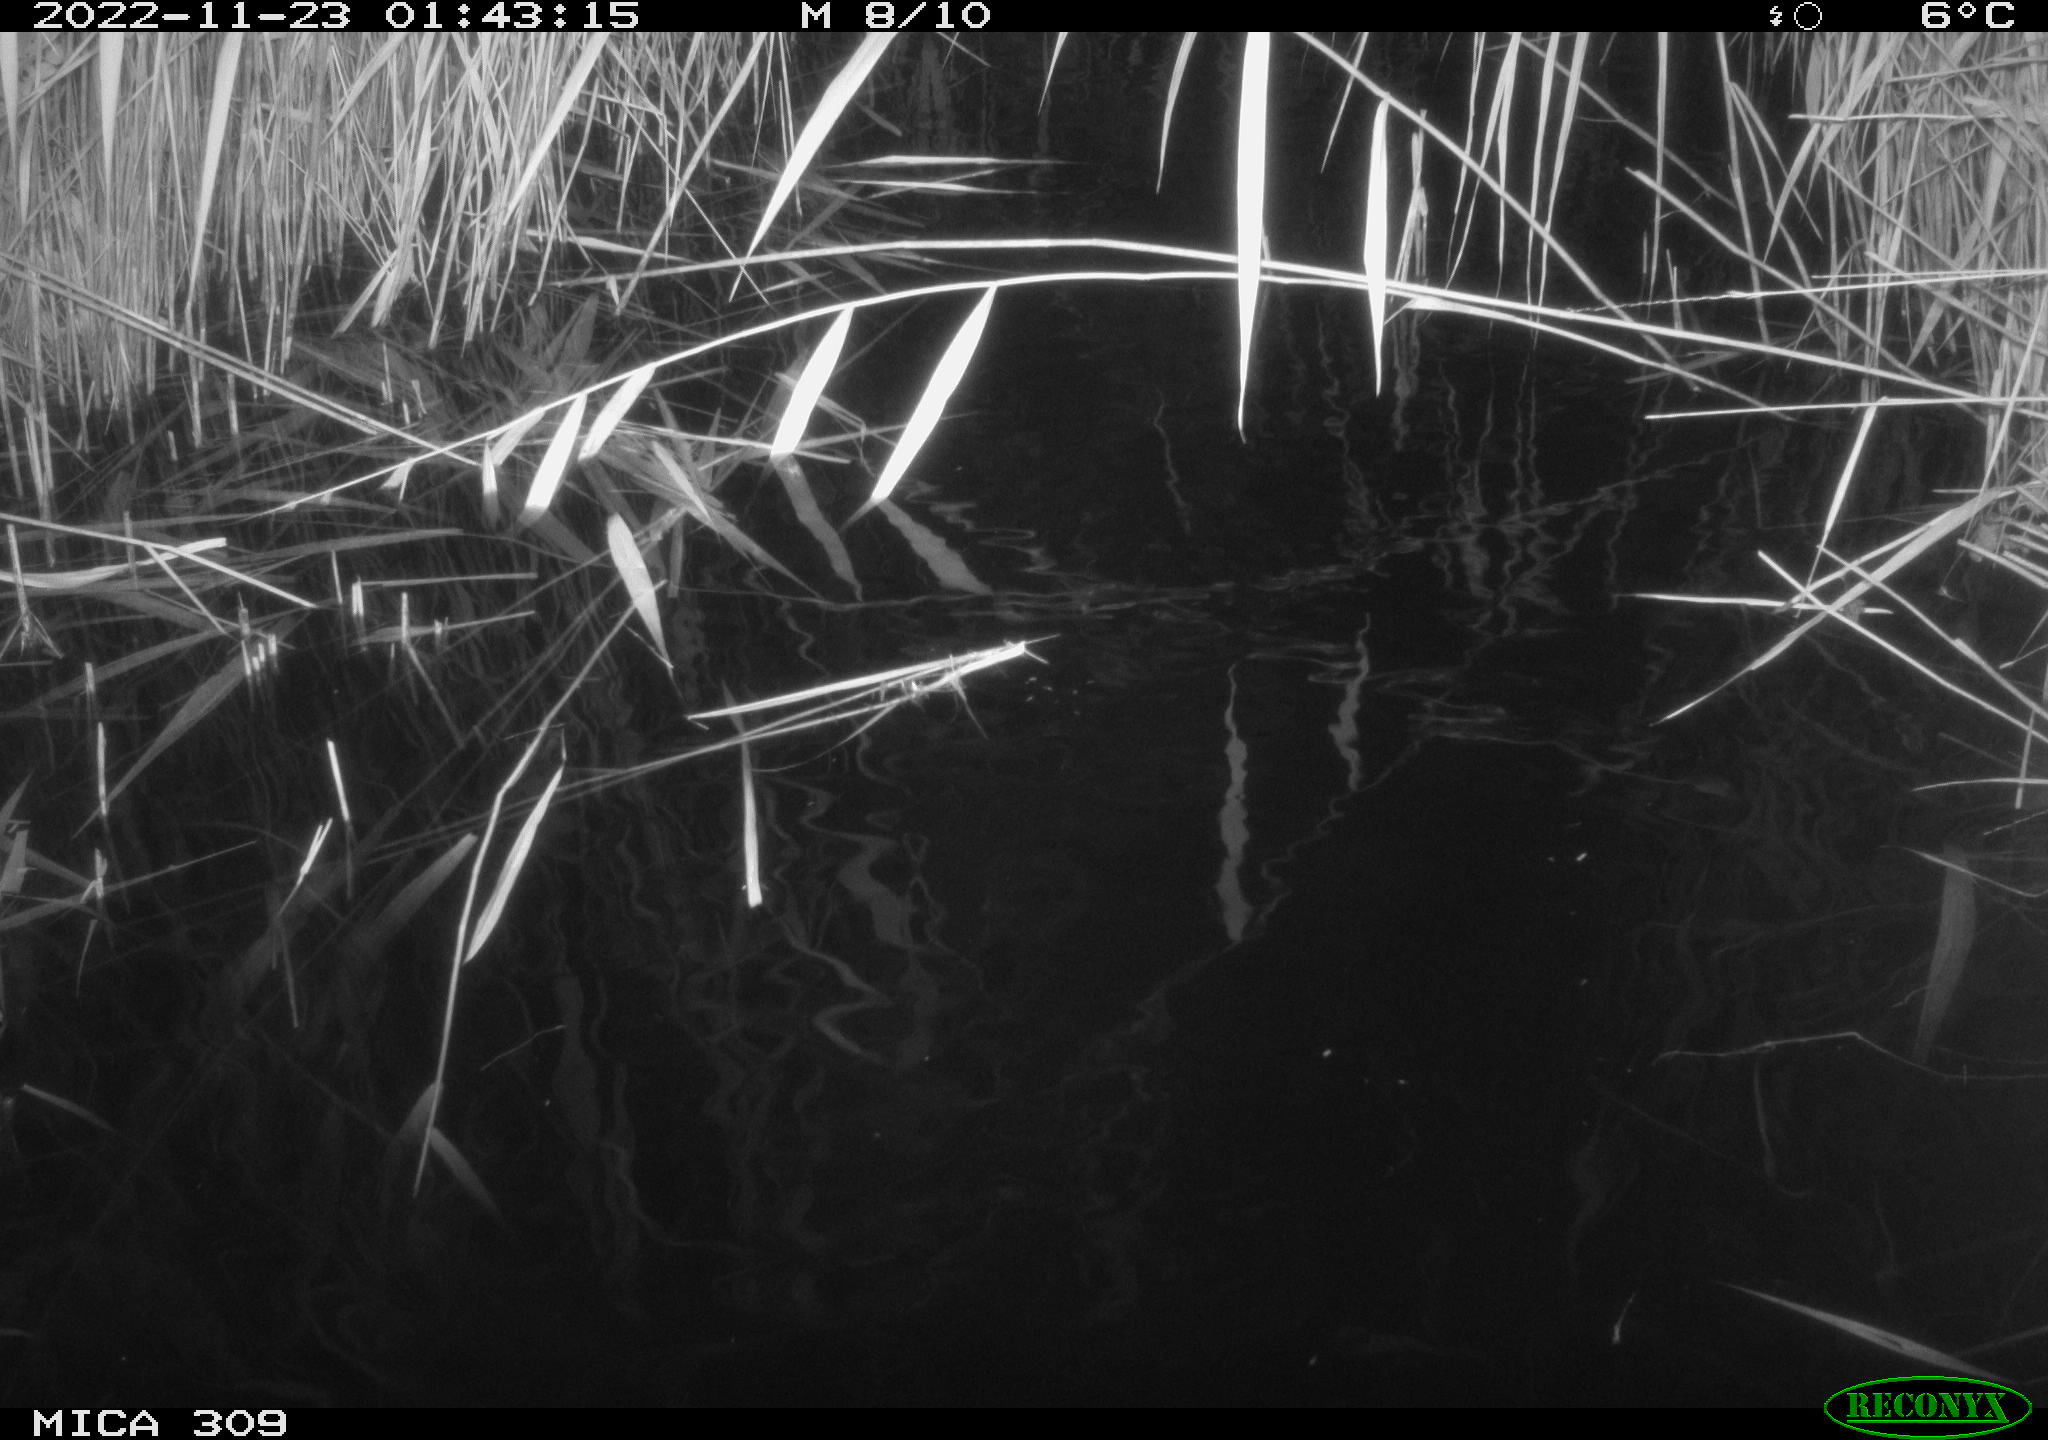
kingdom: Animalia
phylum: Chordata
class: Mammalia
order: Rodentia
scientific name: Rodentia
